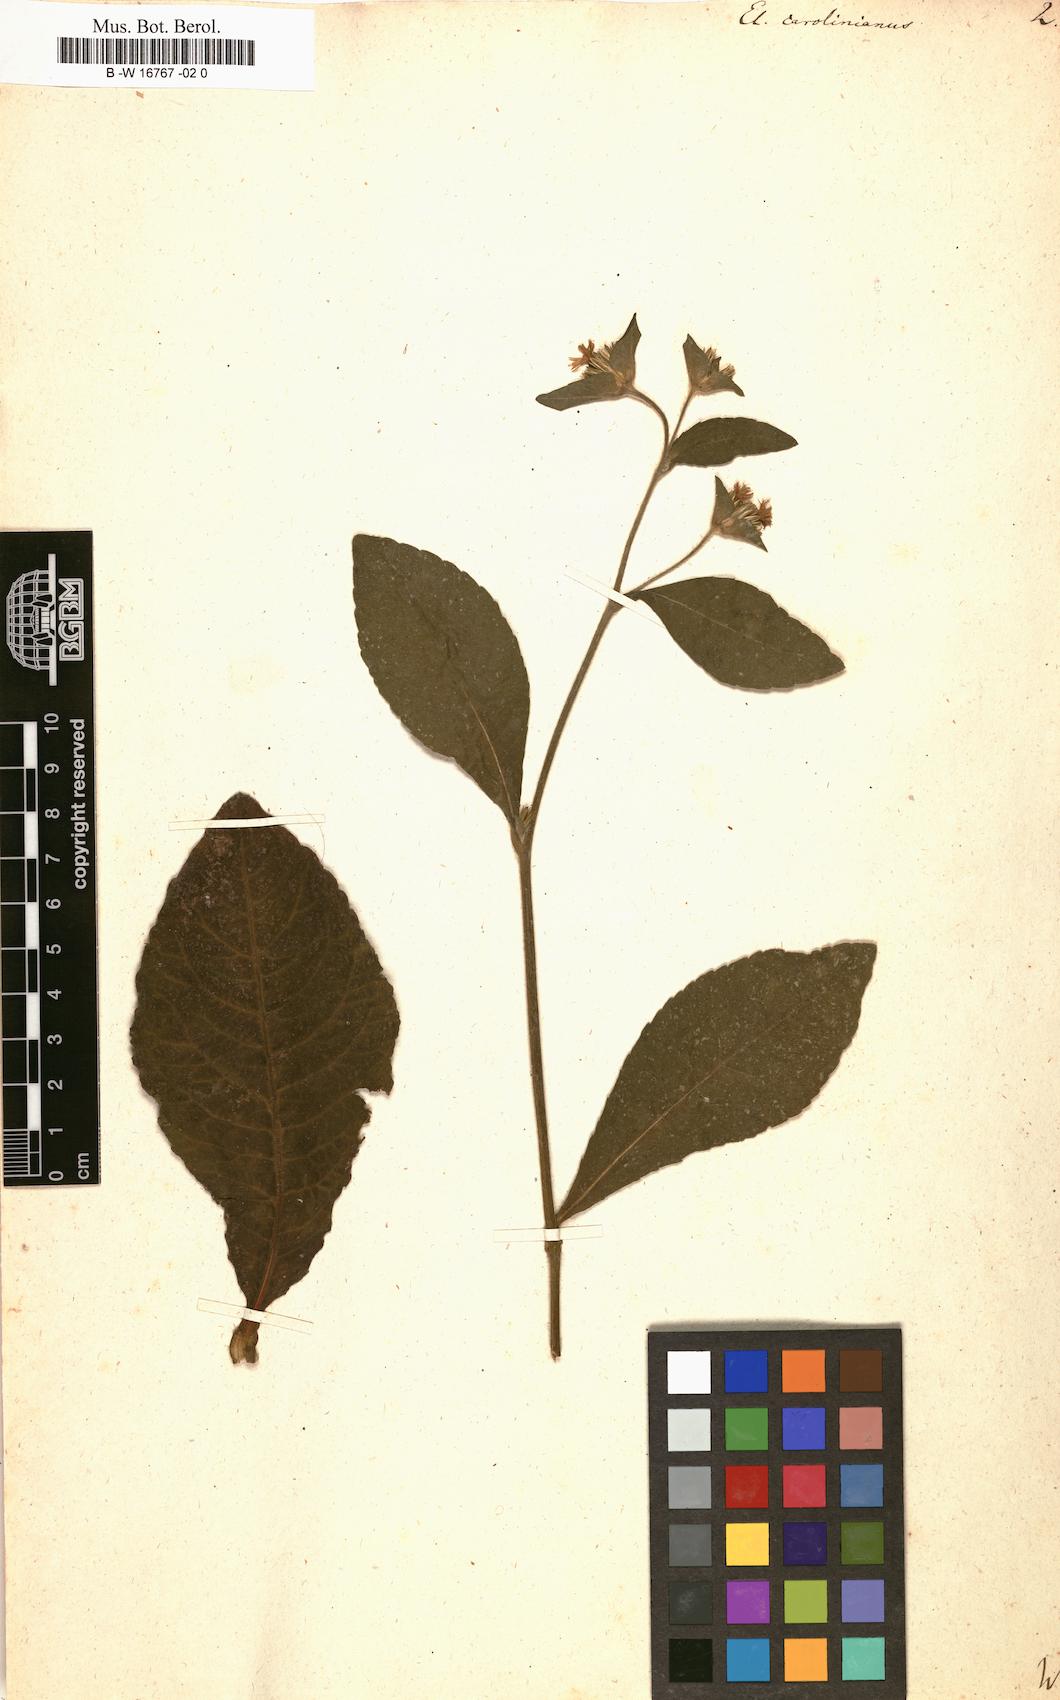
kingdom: Plantae
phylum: Tracheophyta
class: Magnoliopsida
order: Asterales
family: Asteraceae
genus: Elephantopus
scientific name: Elephantopus mollis
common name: Soft elephantsfoot
